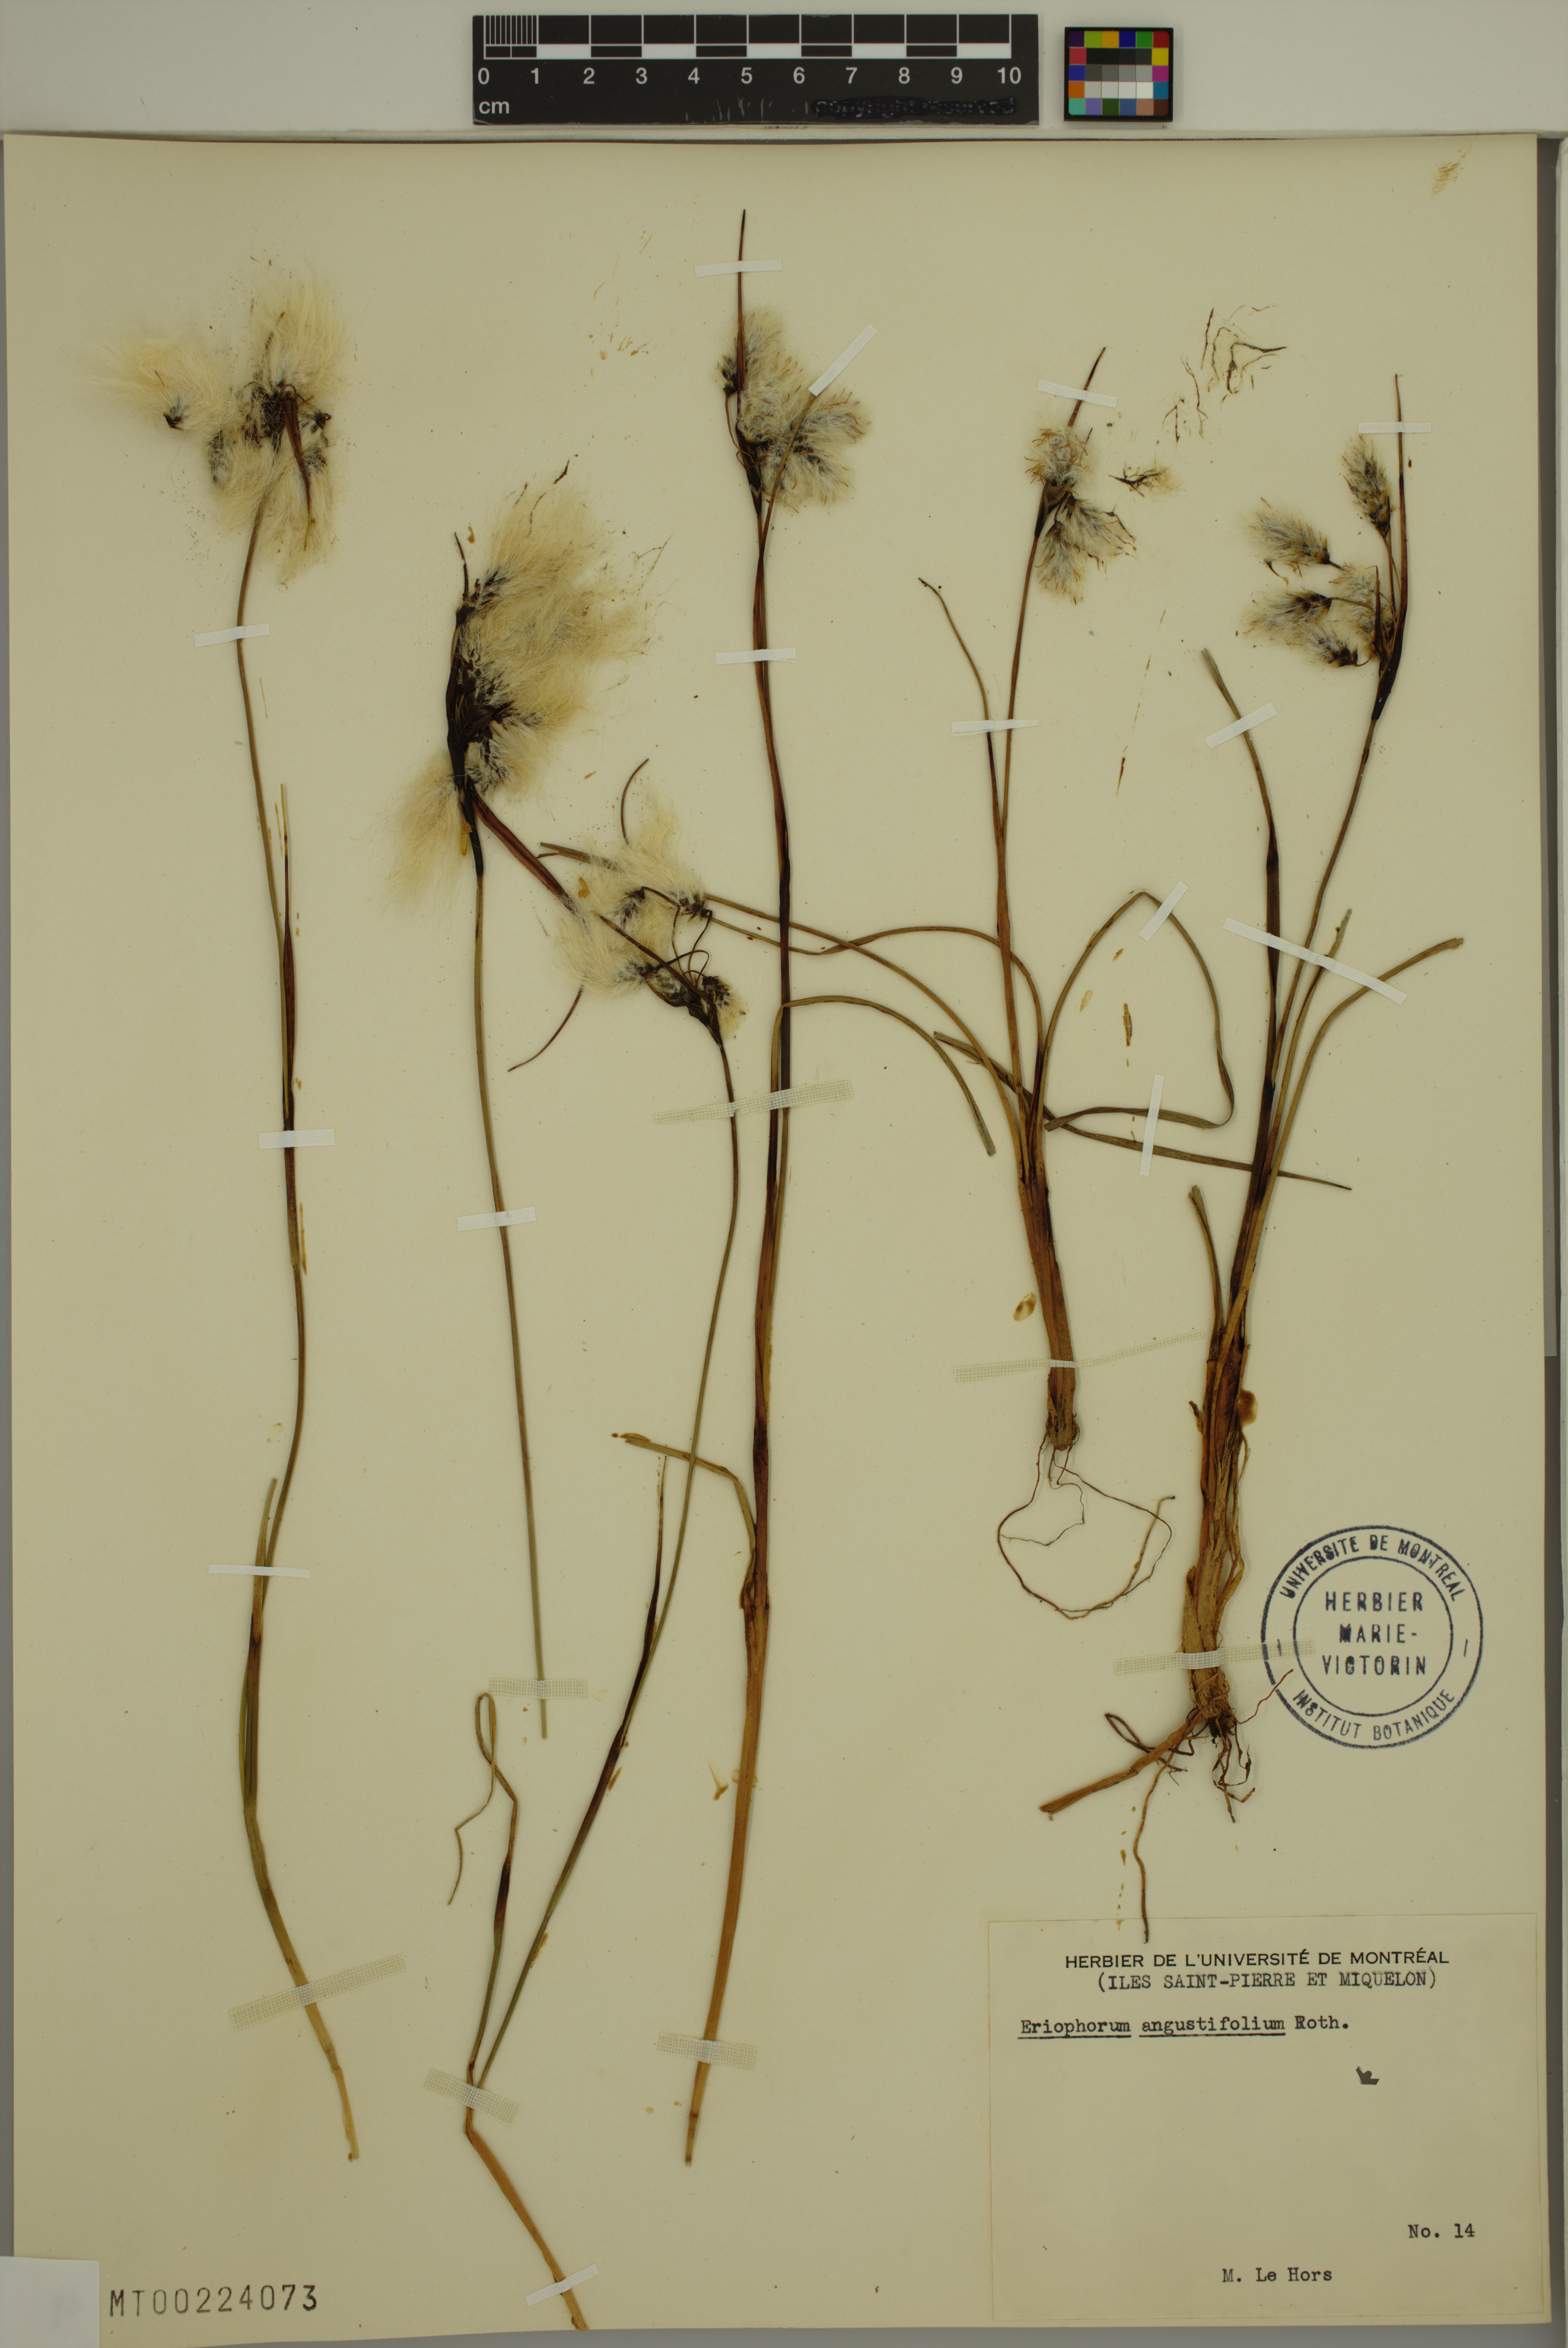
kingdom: Plantae
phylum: Tracheophyta
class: Liliopsida
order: Poales
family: Cyperaceae
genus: Eriophorum
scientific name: Eriophorum angustifolium
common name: Common cottongrass
